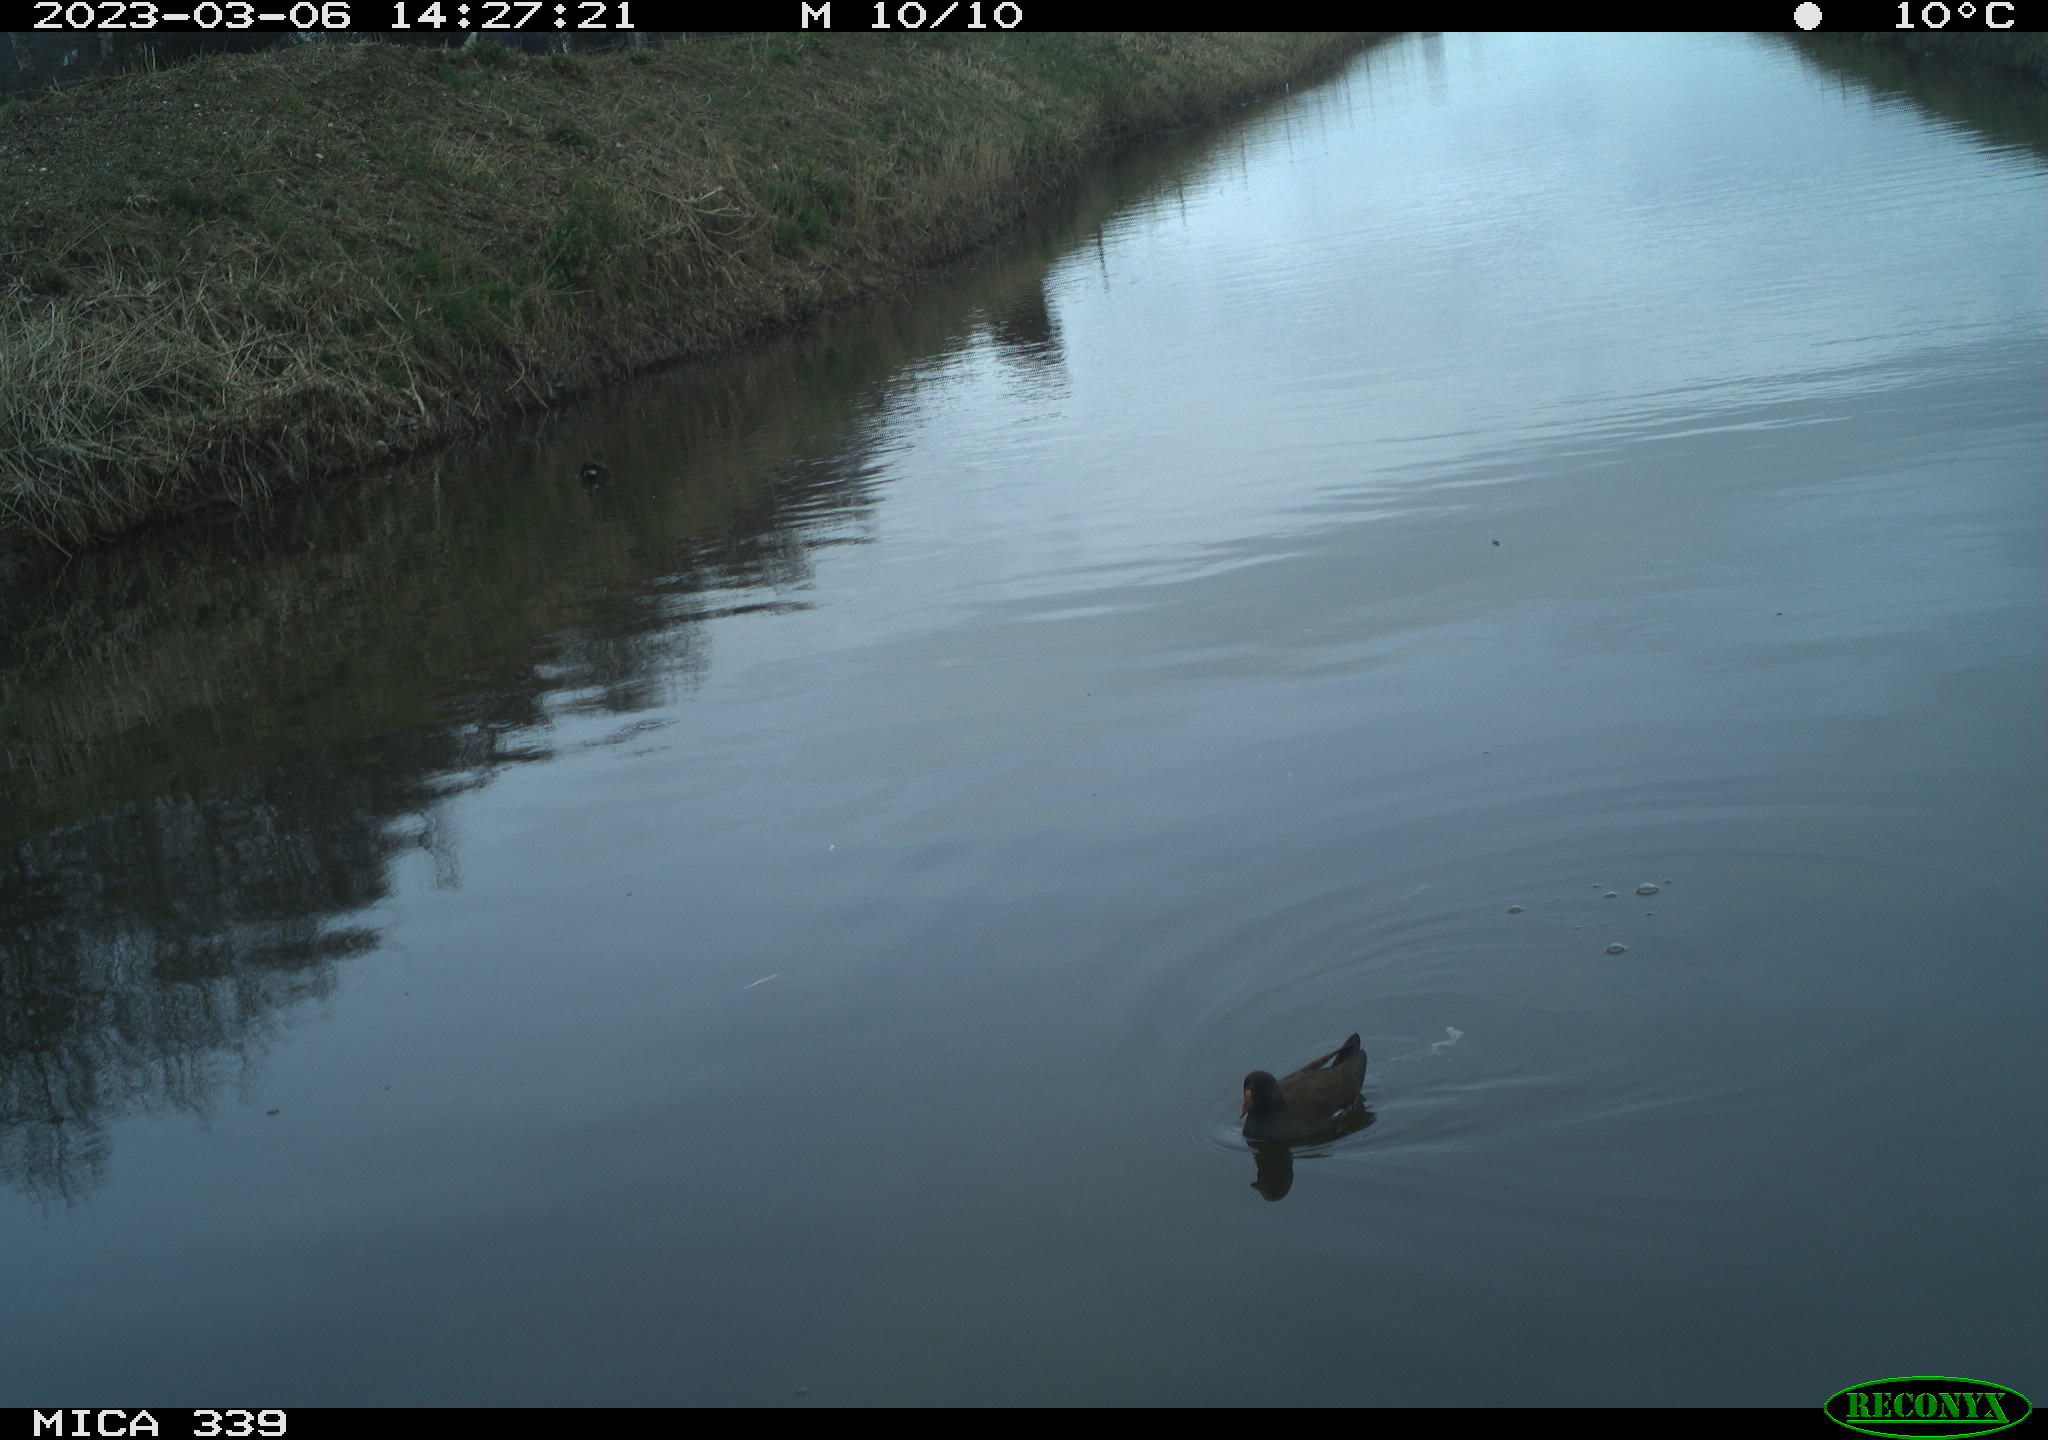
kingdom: Animalia
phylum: Chordata
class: Aves
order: Gruiformes
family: Rallidae
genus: Gallinula
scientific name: Gallinula chloropus
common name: Common moorhen
